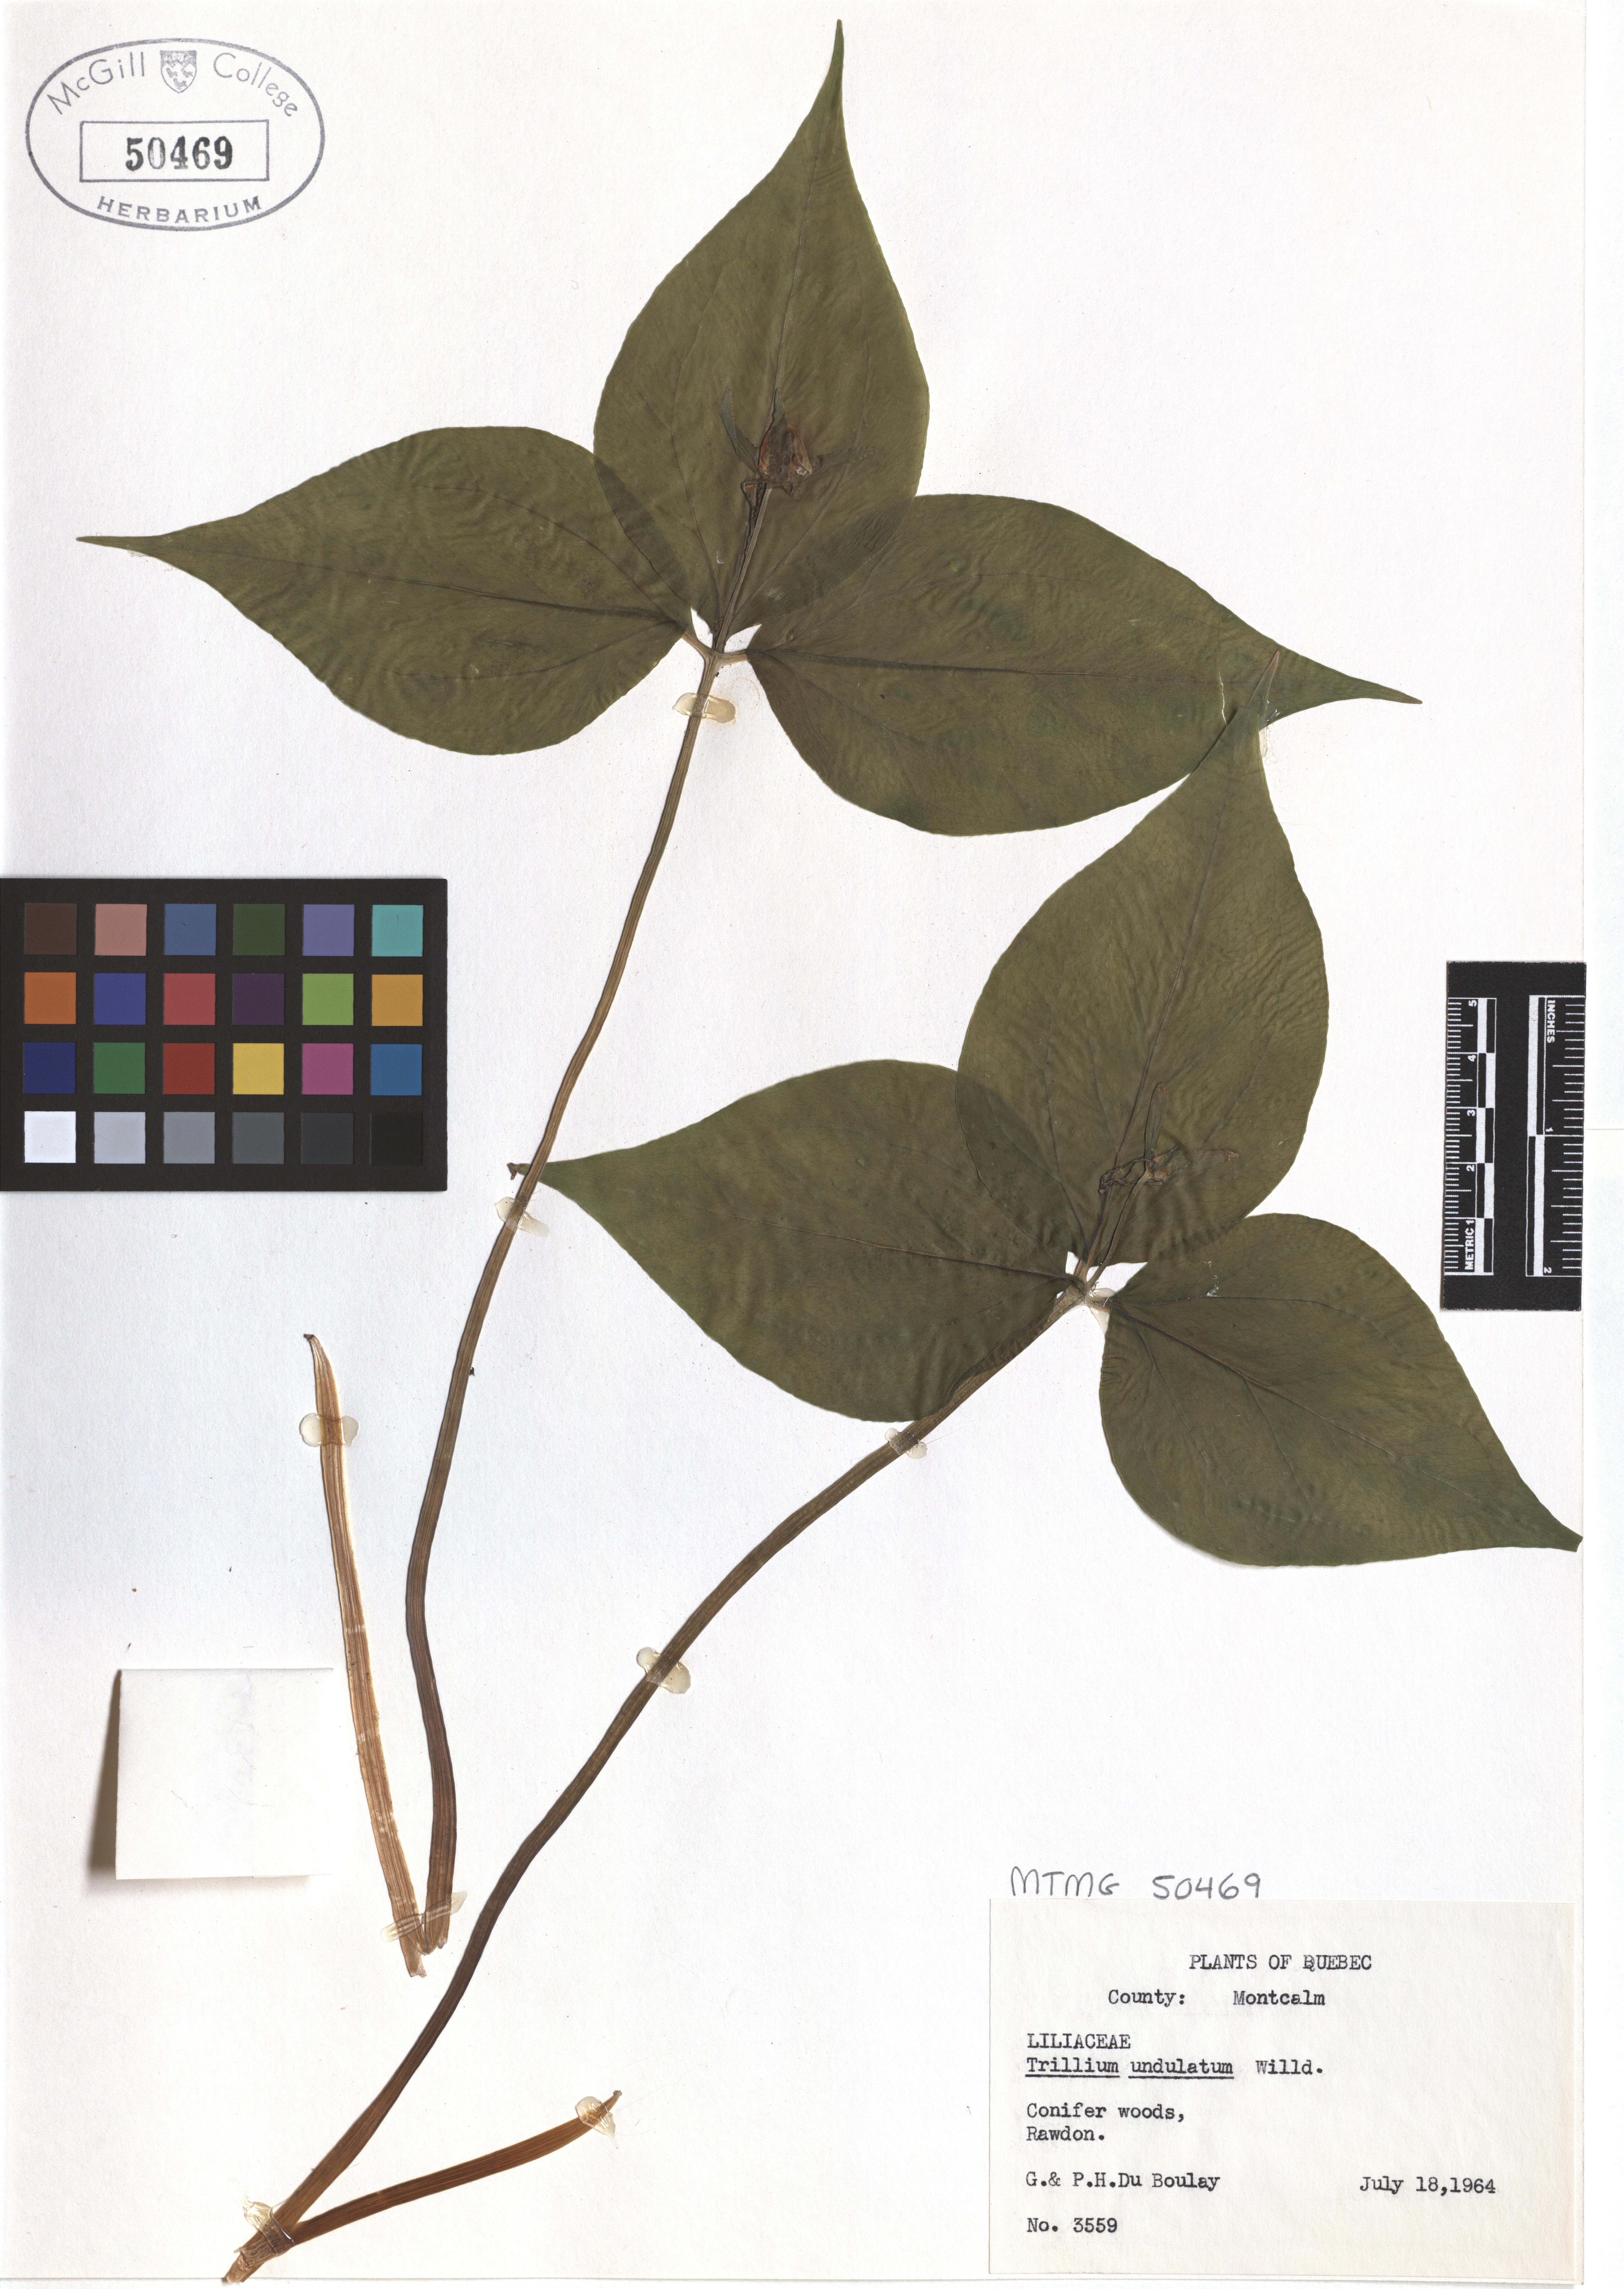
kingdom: Plantae
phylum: Tracheophyta
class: Liliopsida
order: Liliales
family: Melanthiaceae
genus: Trillium
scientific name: Trillium undulatum
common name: Paint trillium
